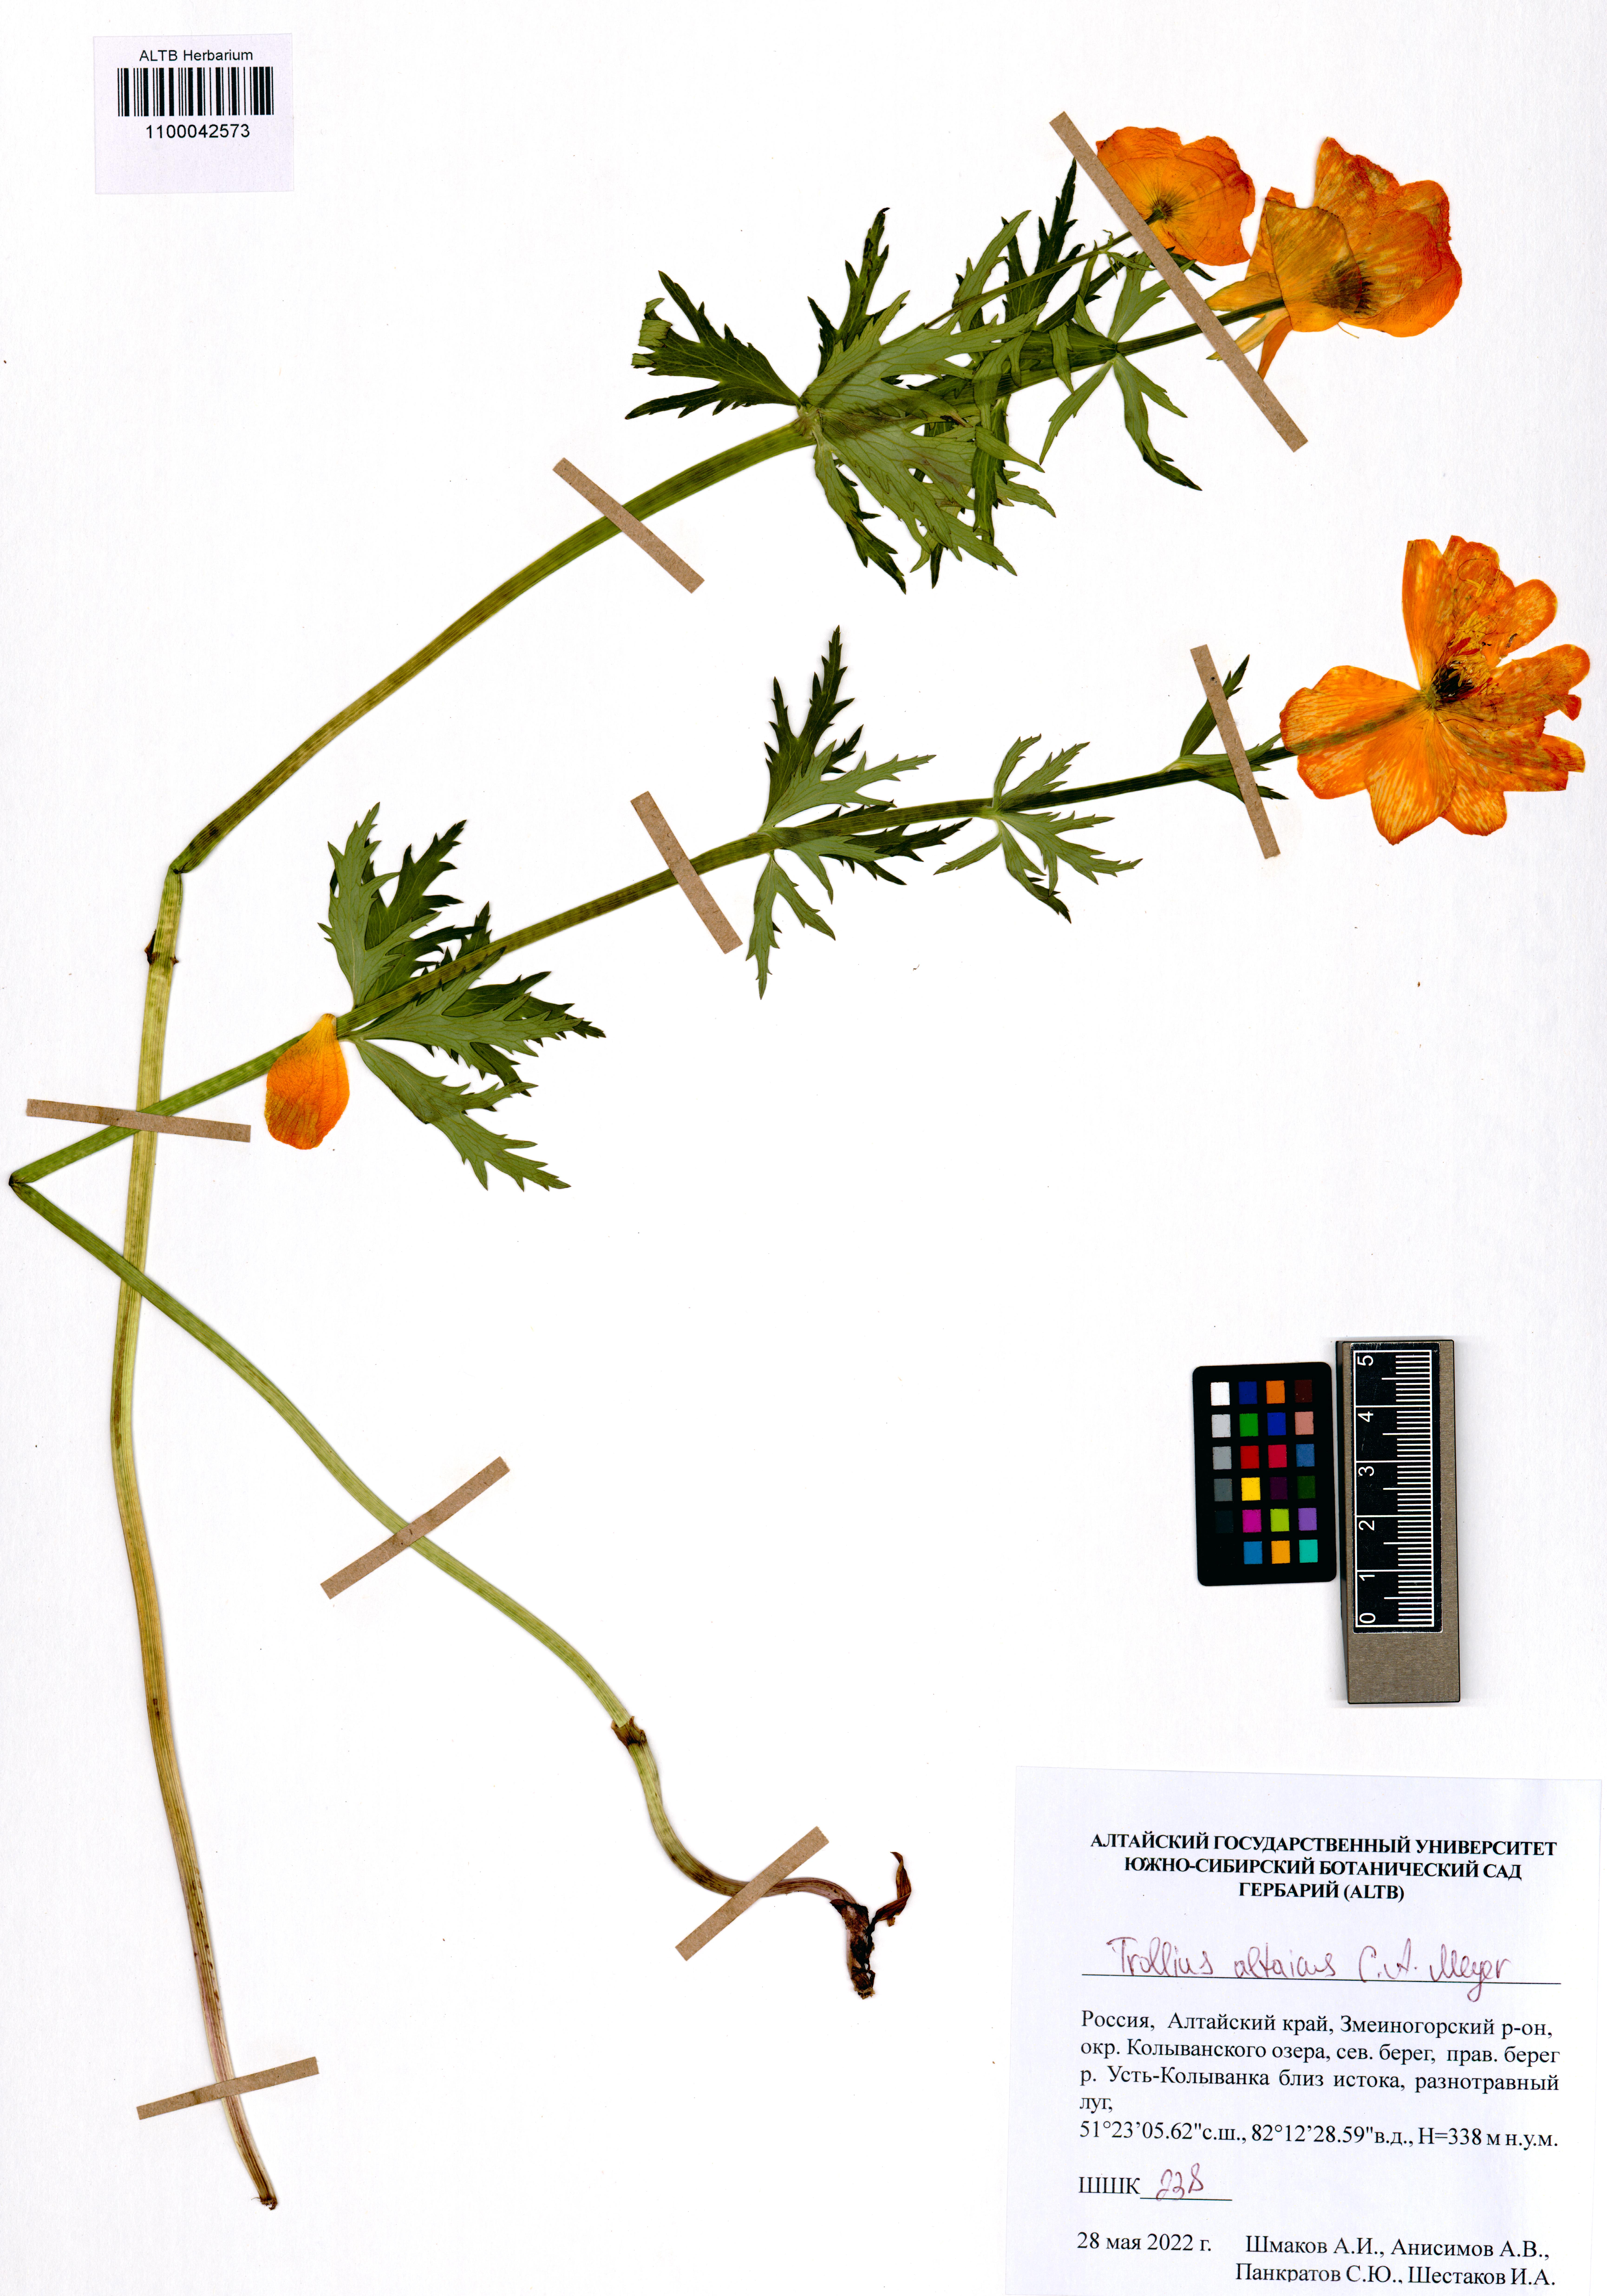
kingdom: Plantae
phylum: Tracheophyta
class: Magnoliopsida
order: Ranunculales
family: Ranunculaceae
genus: Trollius
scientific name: Trollius altaicus
